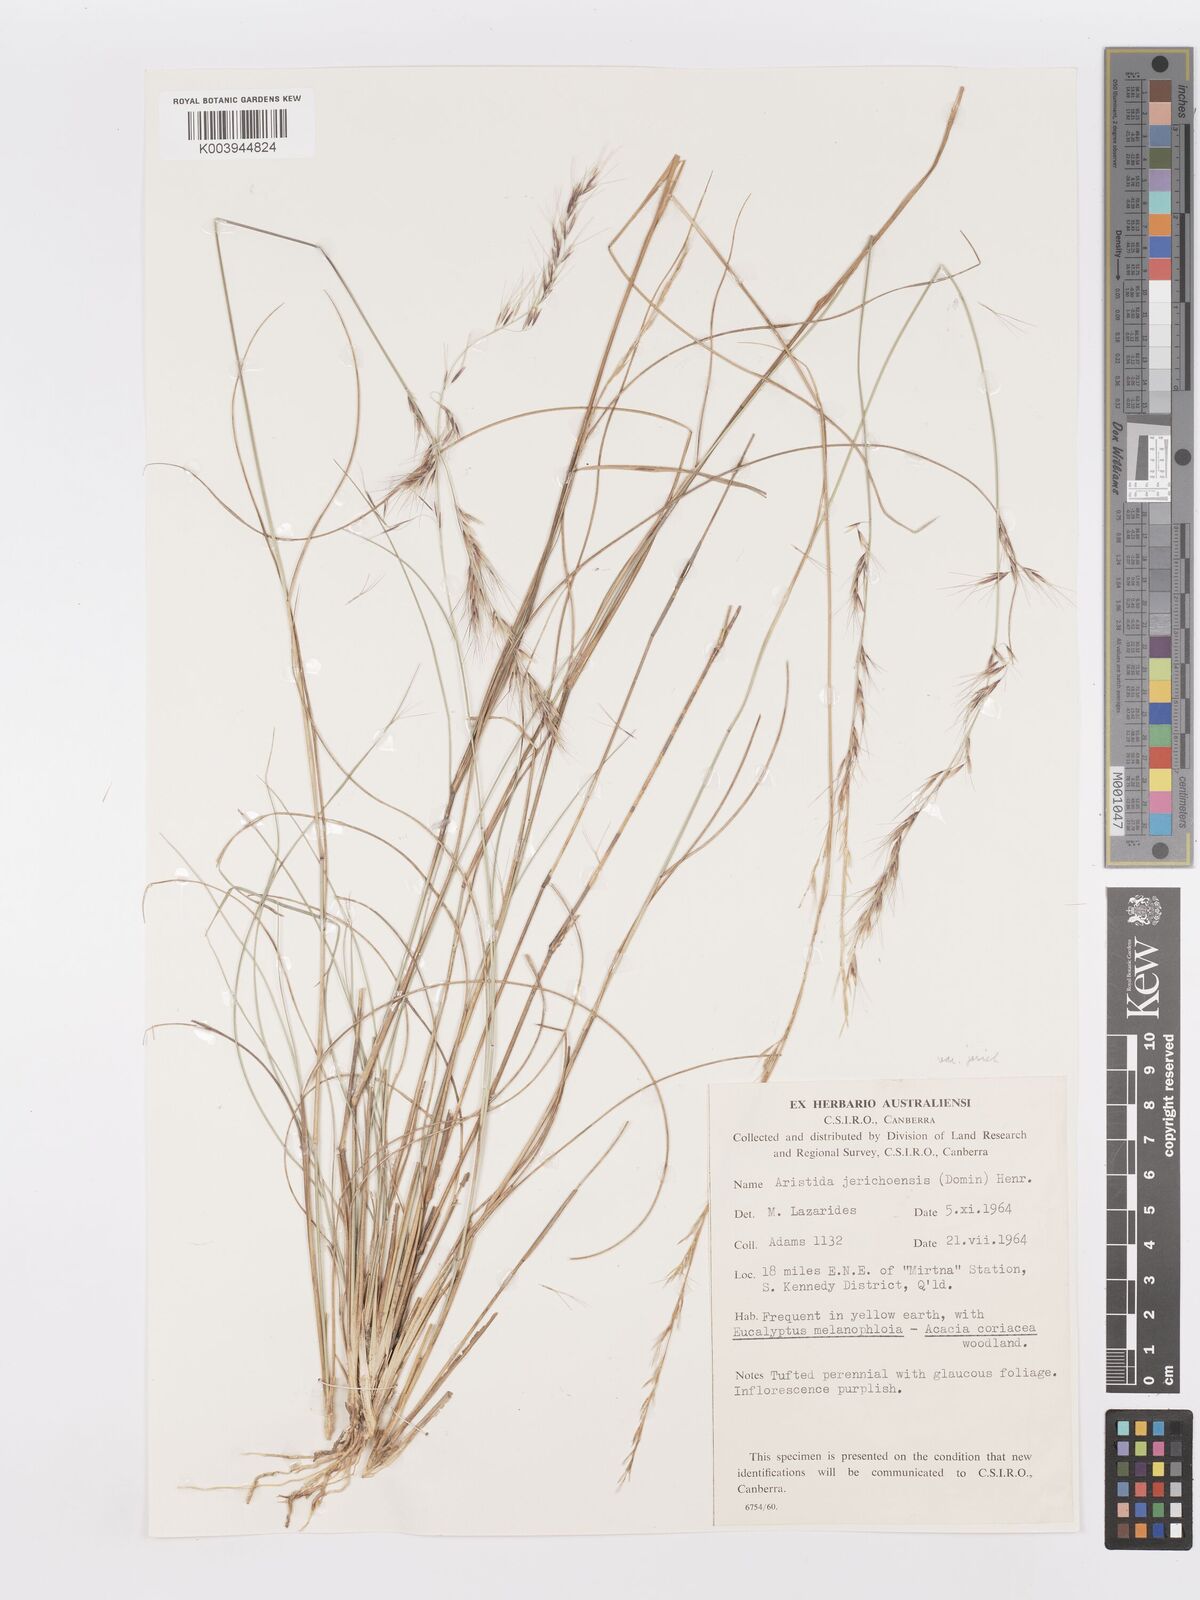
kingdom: Plantae
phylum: Tracheophyta
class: Liliopsida
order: Poales
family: Poaceae
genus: Aristida
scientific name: Aristida jerichoensis
